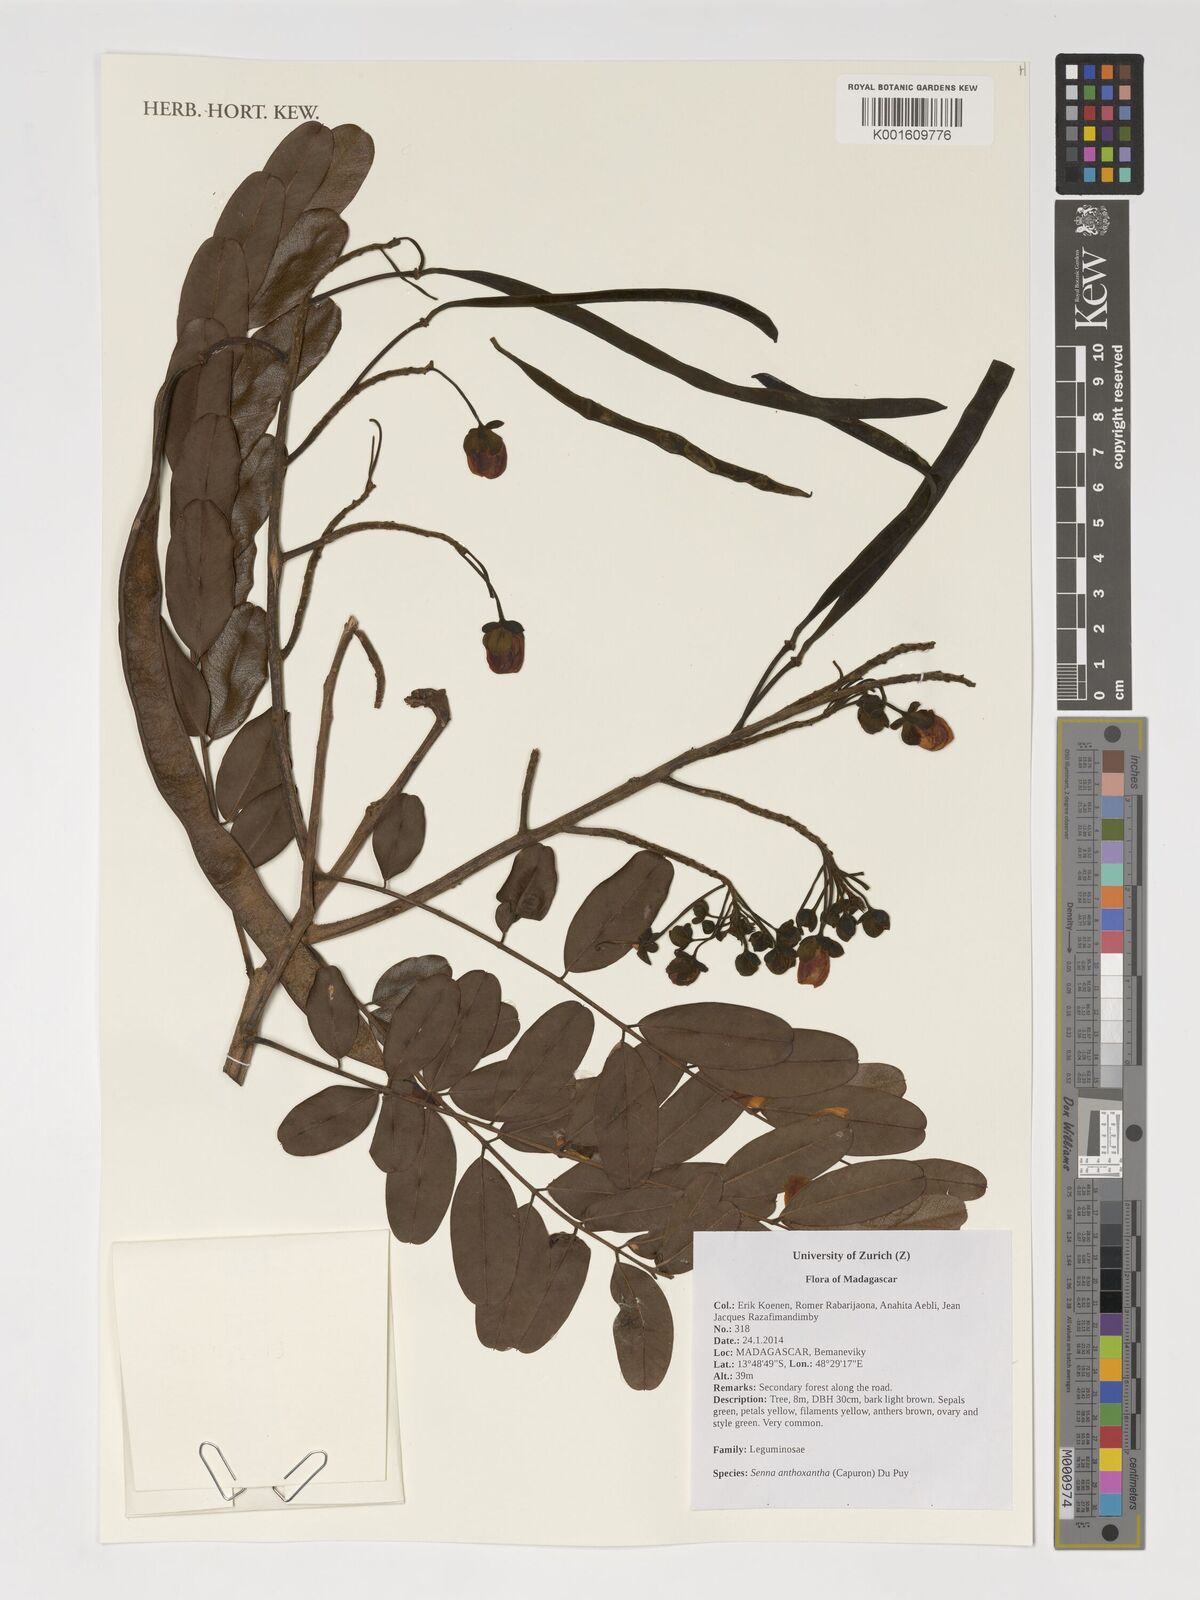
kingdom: Plantae
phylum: Tracheophyta
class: Magnoliopsida
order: Fabales
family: Fabaceae
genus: Senna
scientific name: Senna anthoxantha
